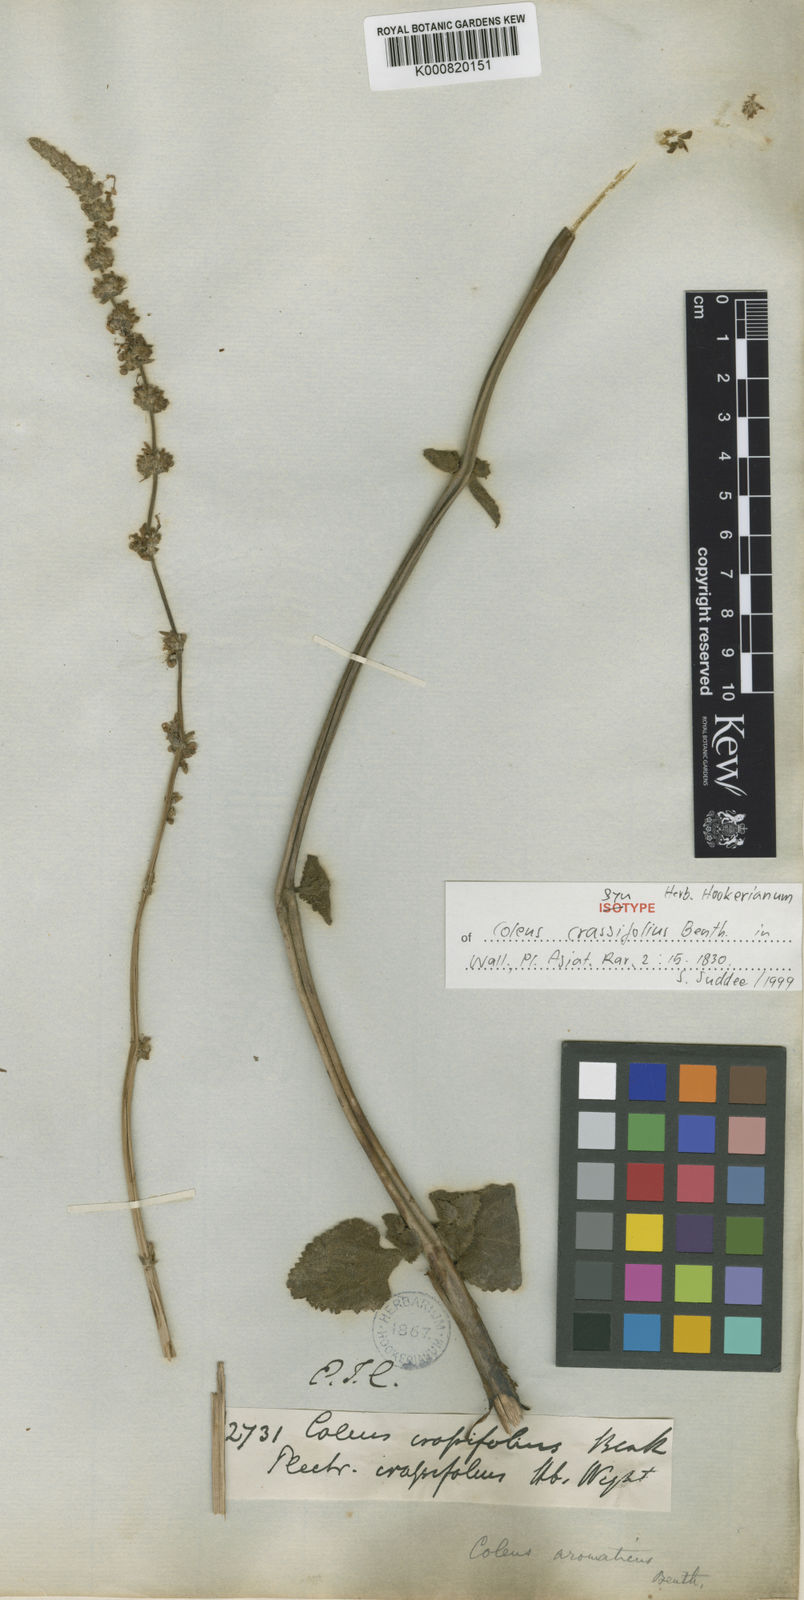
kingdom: Plantae
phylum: Tracheophyta
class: Magnoliopsida
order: Lamiales
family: Lamiaceae
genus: Coleus
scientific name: Coleus scutellarioides
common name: Coleus
